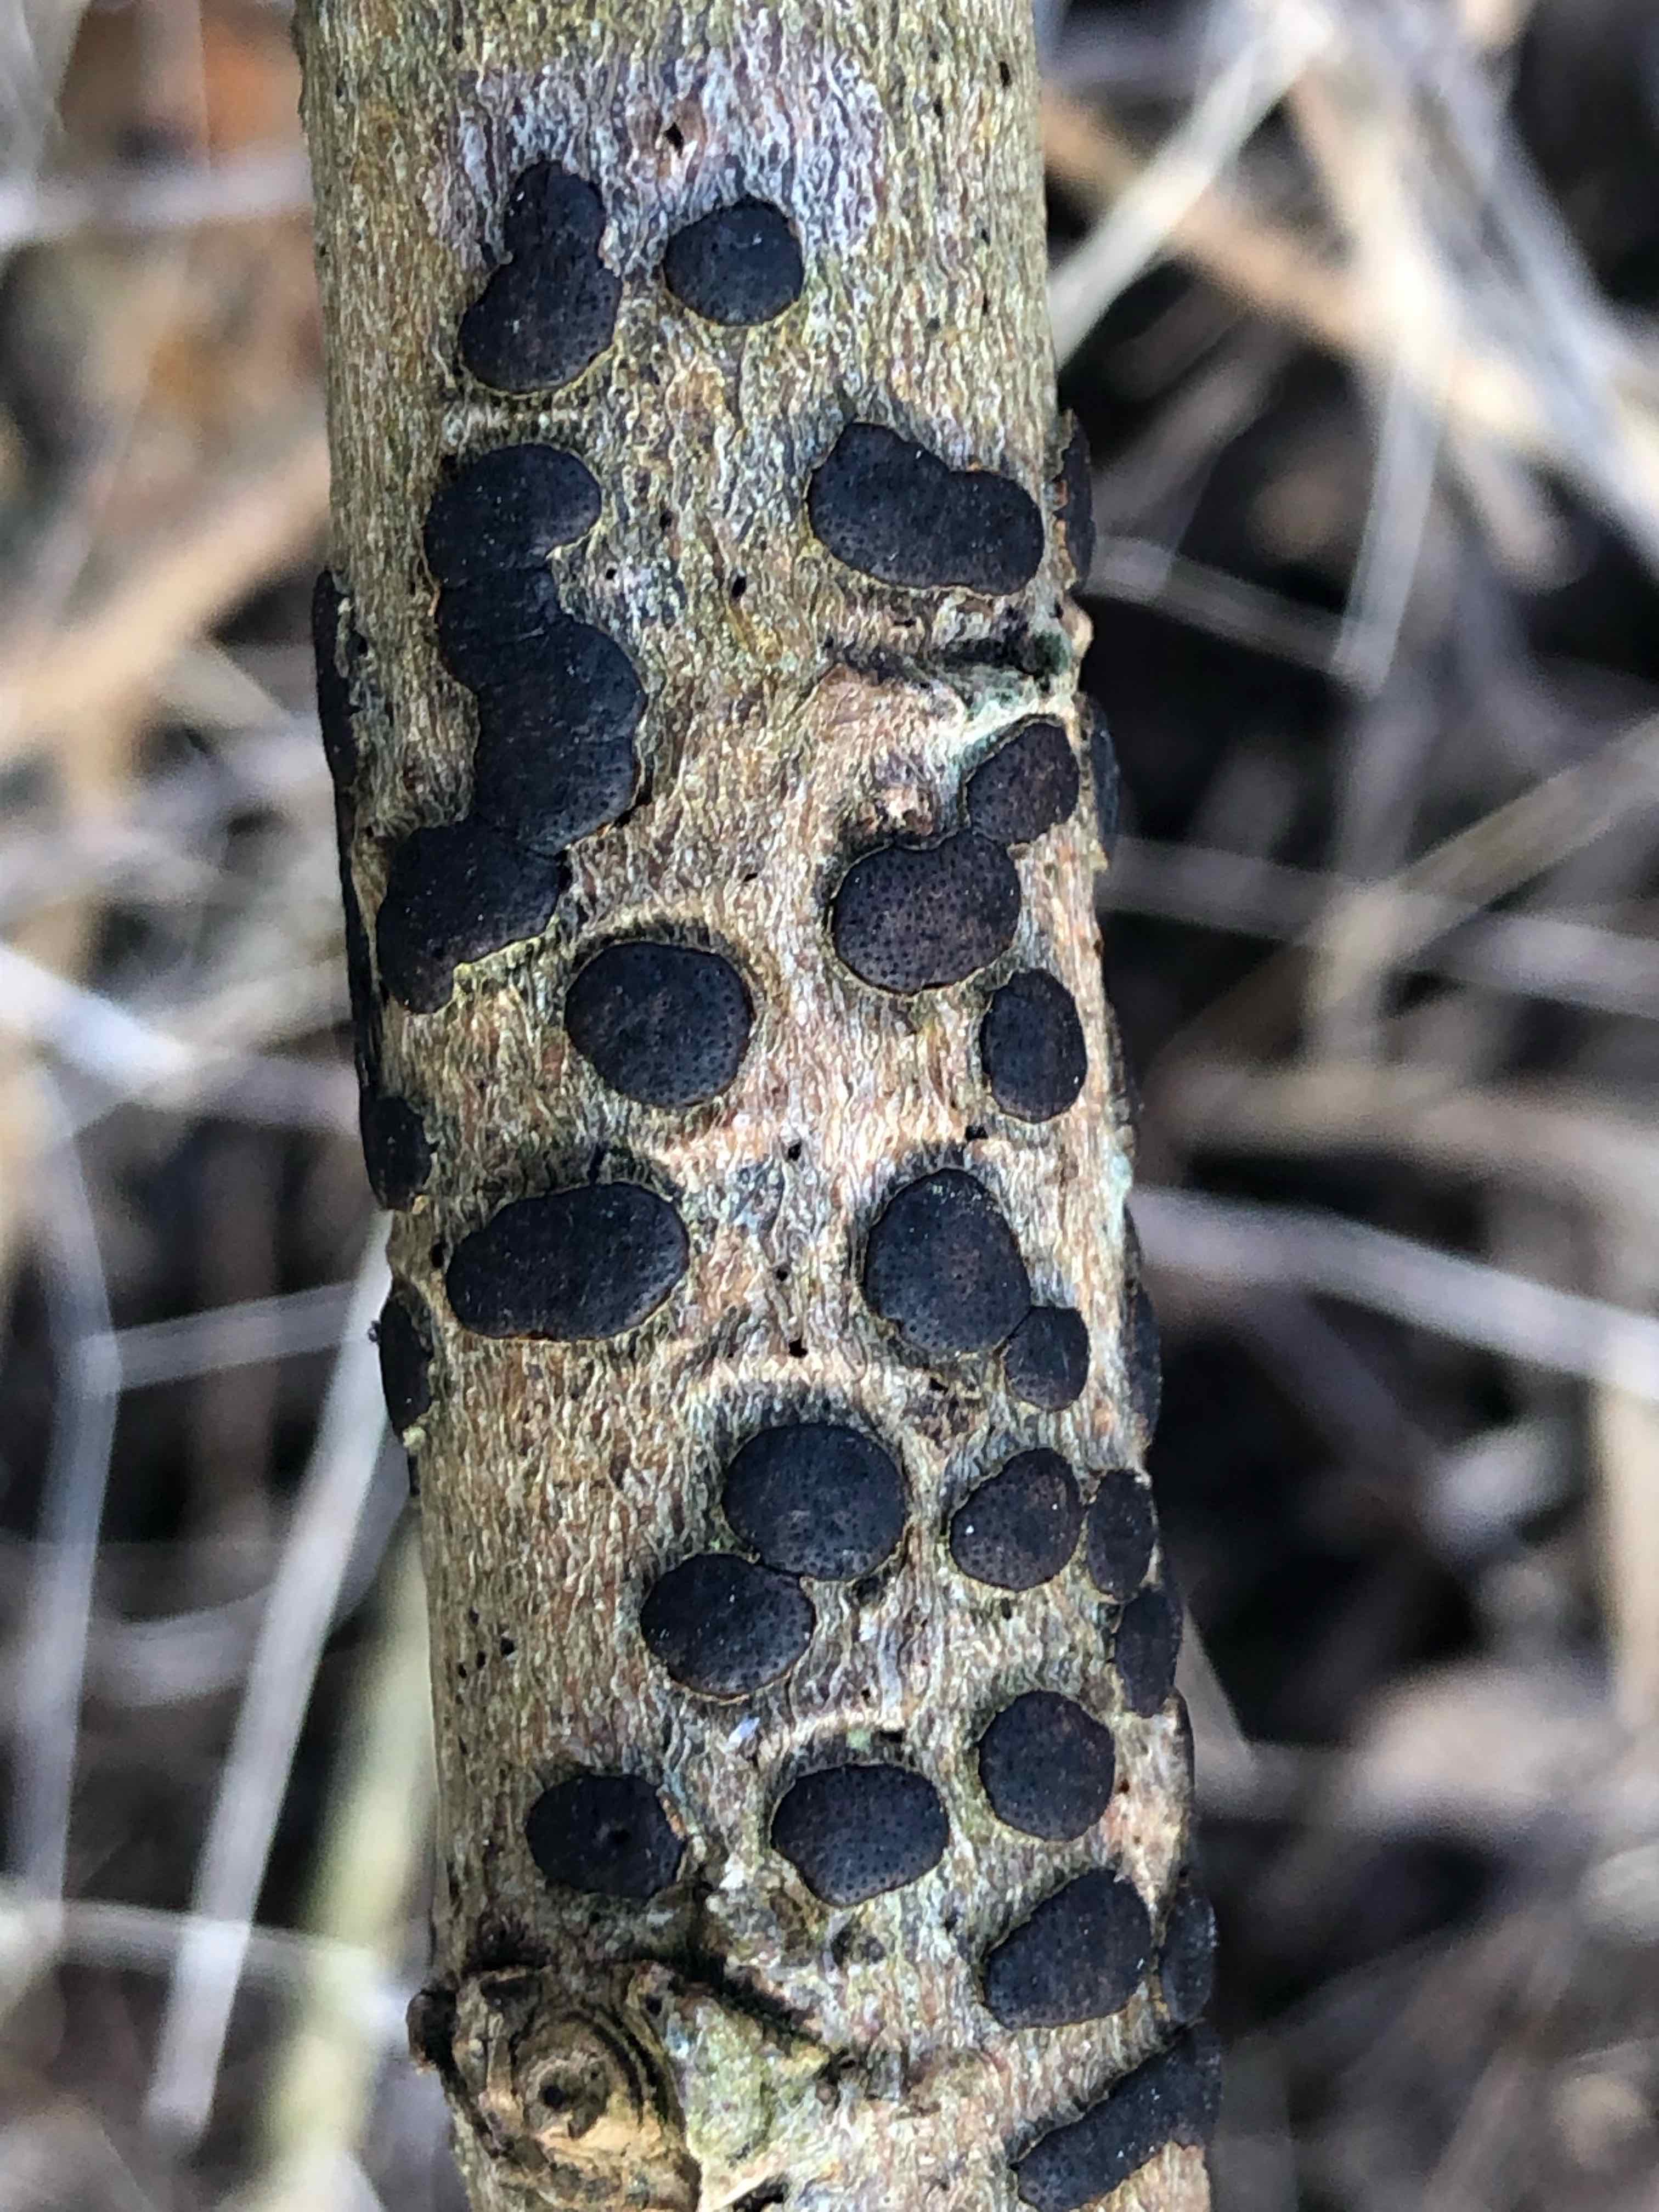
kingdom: Fungi
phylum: Ascomycota
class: Sordariomycetes
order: Xylariales
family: Diatrypaceae
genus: Diatrype
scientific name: Diatrype bullata
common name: pile-kulskorpe
